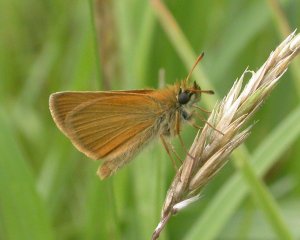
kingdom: Animalia
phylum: Arthropoda
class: Insecta
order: Lepidoptera
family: Hesperiidae
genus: Thymelicus
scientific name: Thymelicus lineola
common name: European Skipper
